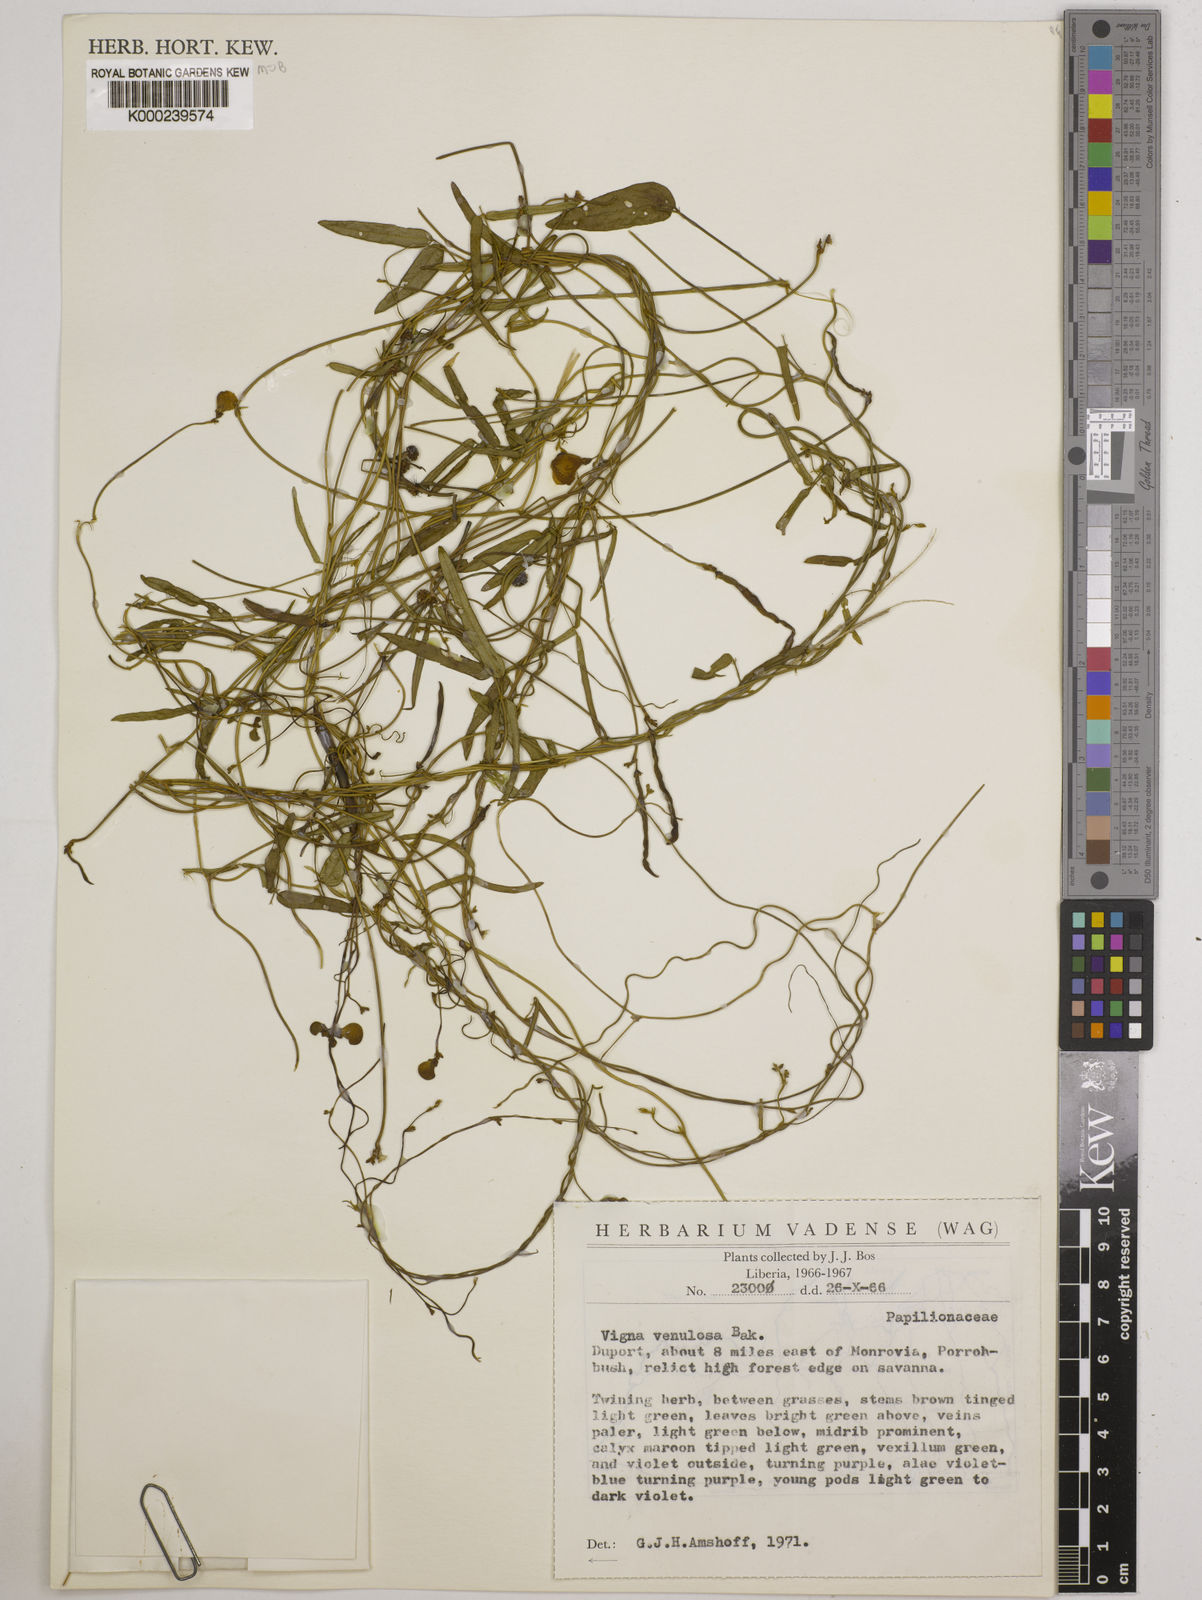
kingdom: Plantae
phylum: Tracheophyta
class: Magnoliopsida
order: Fabales
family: Fabaceae
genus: Vigna
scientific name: Vigna venulosa
